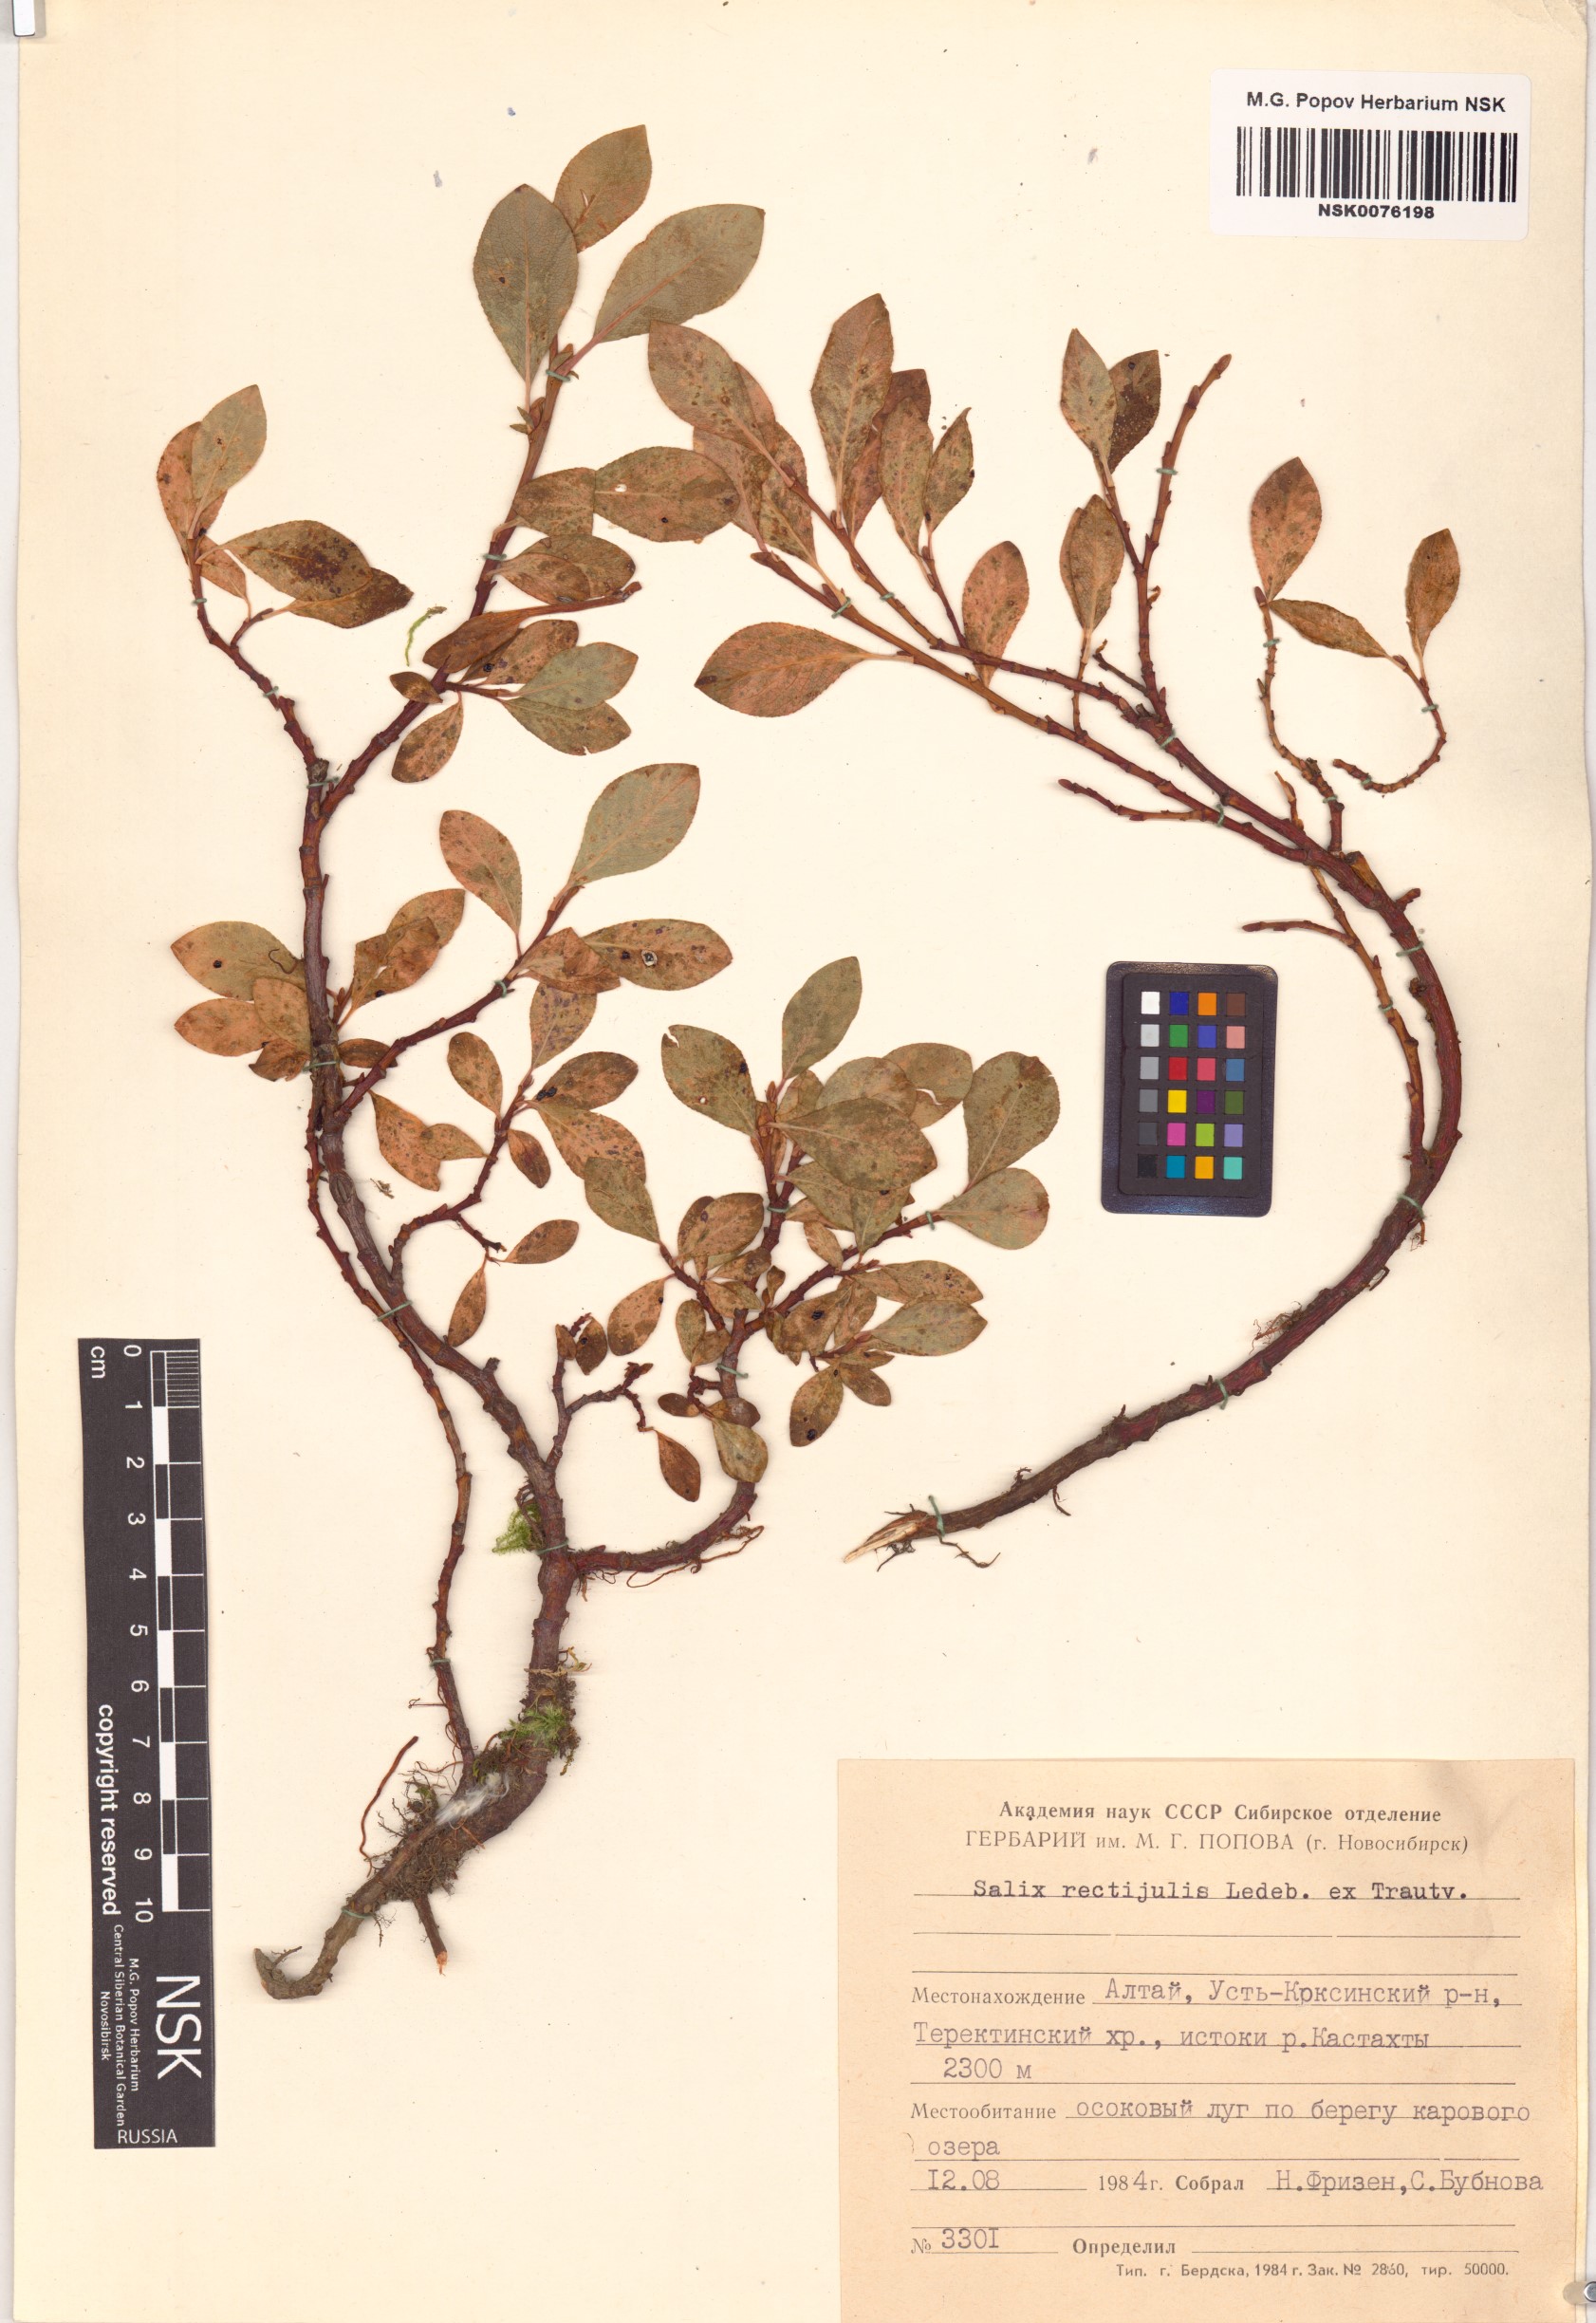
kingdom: Plantae
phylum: Tracheophyta
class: Magnoliopsida
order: Malpighiales
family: Salicaceae
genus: Salix
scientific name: Salix rectijulis
